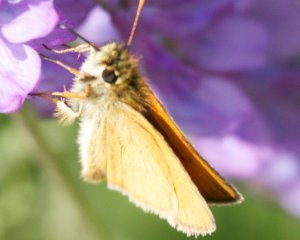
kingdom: Animalia
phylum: Arthropoda
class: Insecta
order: Lepidoptera
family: Hesperiidae
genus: Thymelicus
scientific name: Thymelicus lineola
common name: European Skipper
